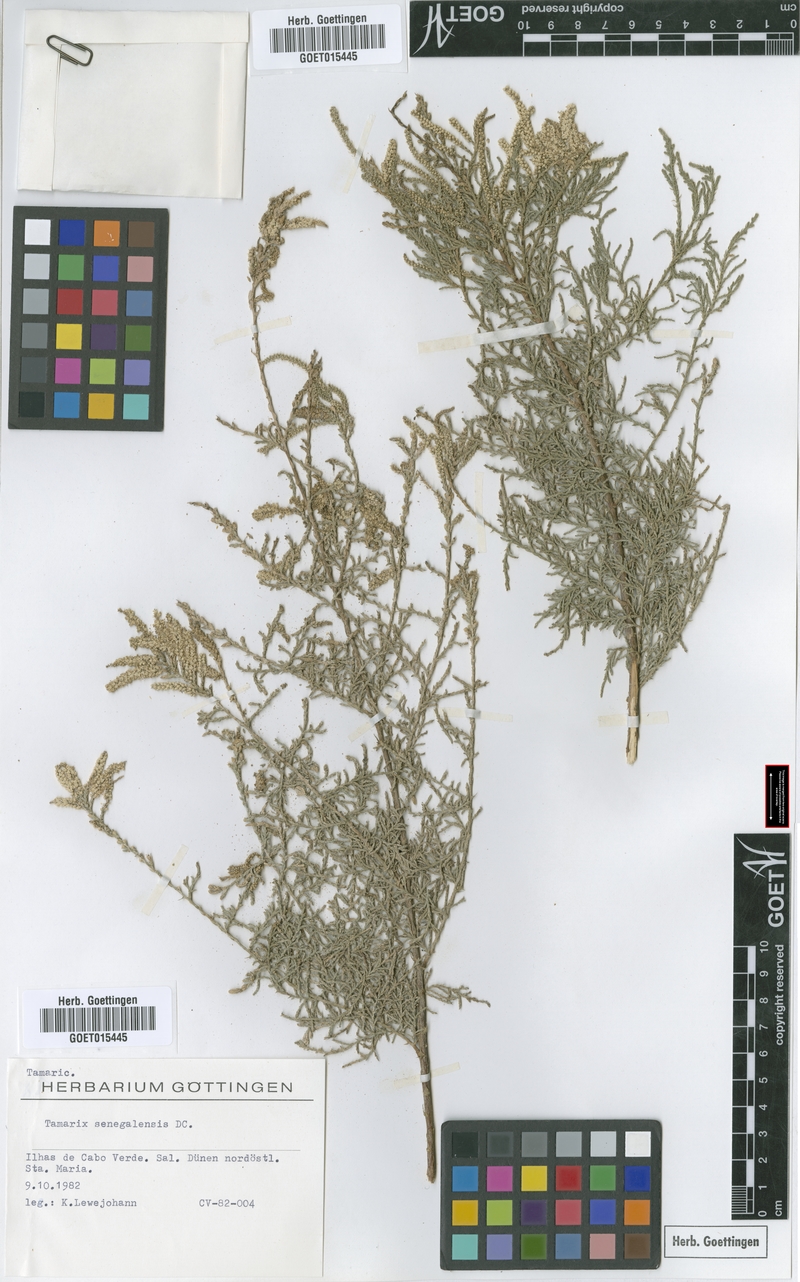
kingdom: Plantae
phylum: Tracheophyta
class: Magnoliopsida
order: Caryophyllales
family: Tamaricaceae
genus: Tamarix
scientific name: Tamarix senegalensis
